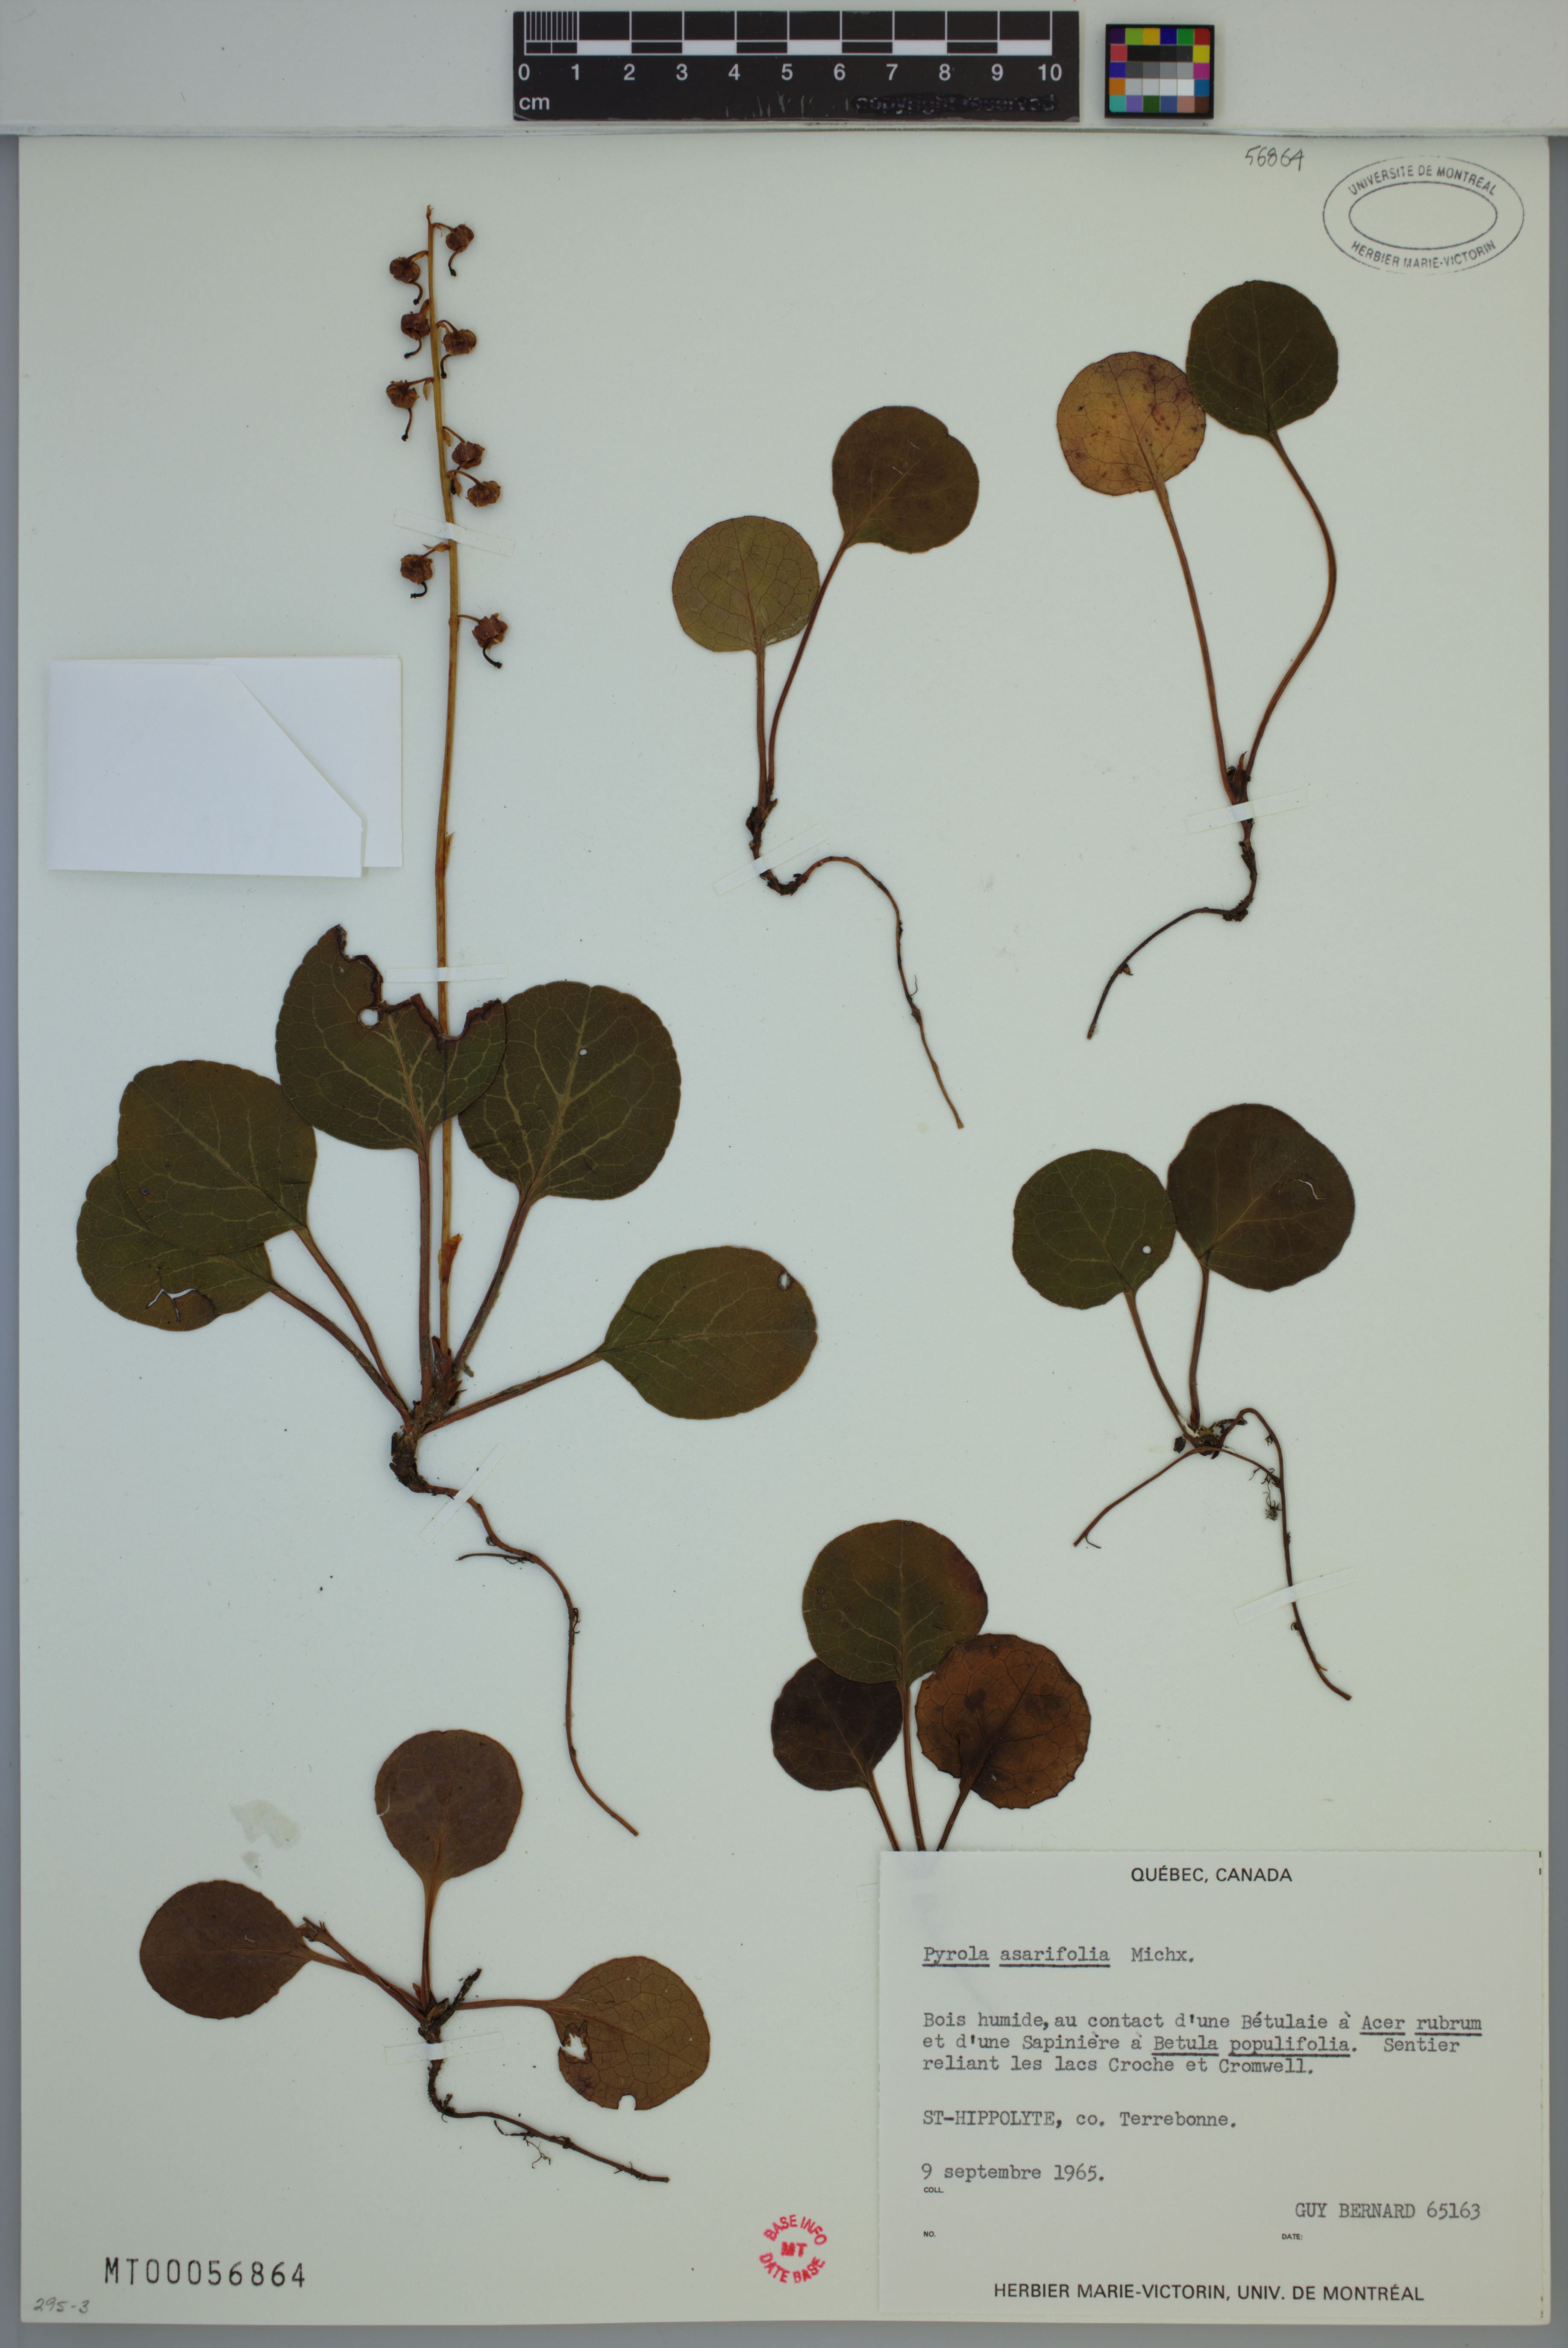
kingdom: Plantae
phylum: Tracheophyta
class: Magnoliopsida
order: Ericales
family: Ericaceae
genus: Pyrola
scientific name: Pyrola asarifolia
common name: Bog wintergreen
